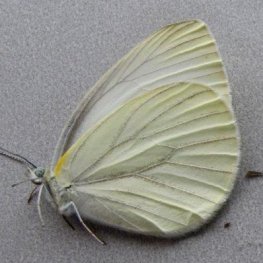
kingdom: Animalia
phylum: Arthropoda
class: Insecta
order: Lepidoptera
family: Pieridae
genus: Pieris
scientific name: Pieris oleracea
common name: Mustard White
